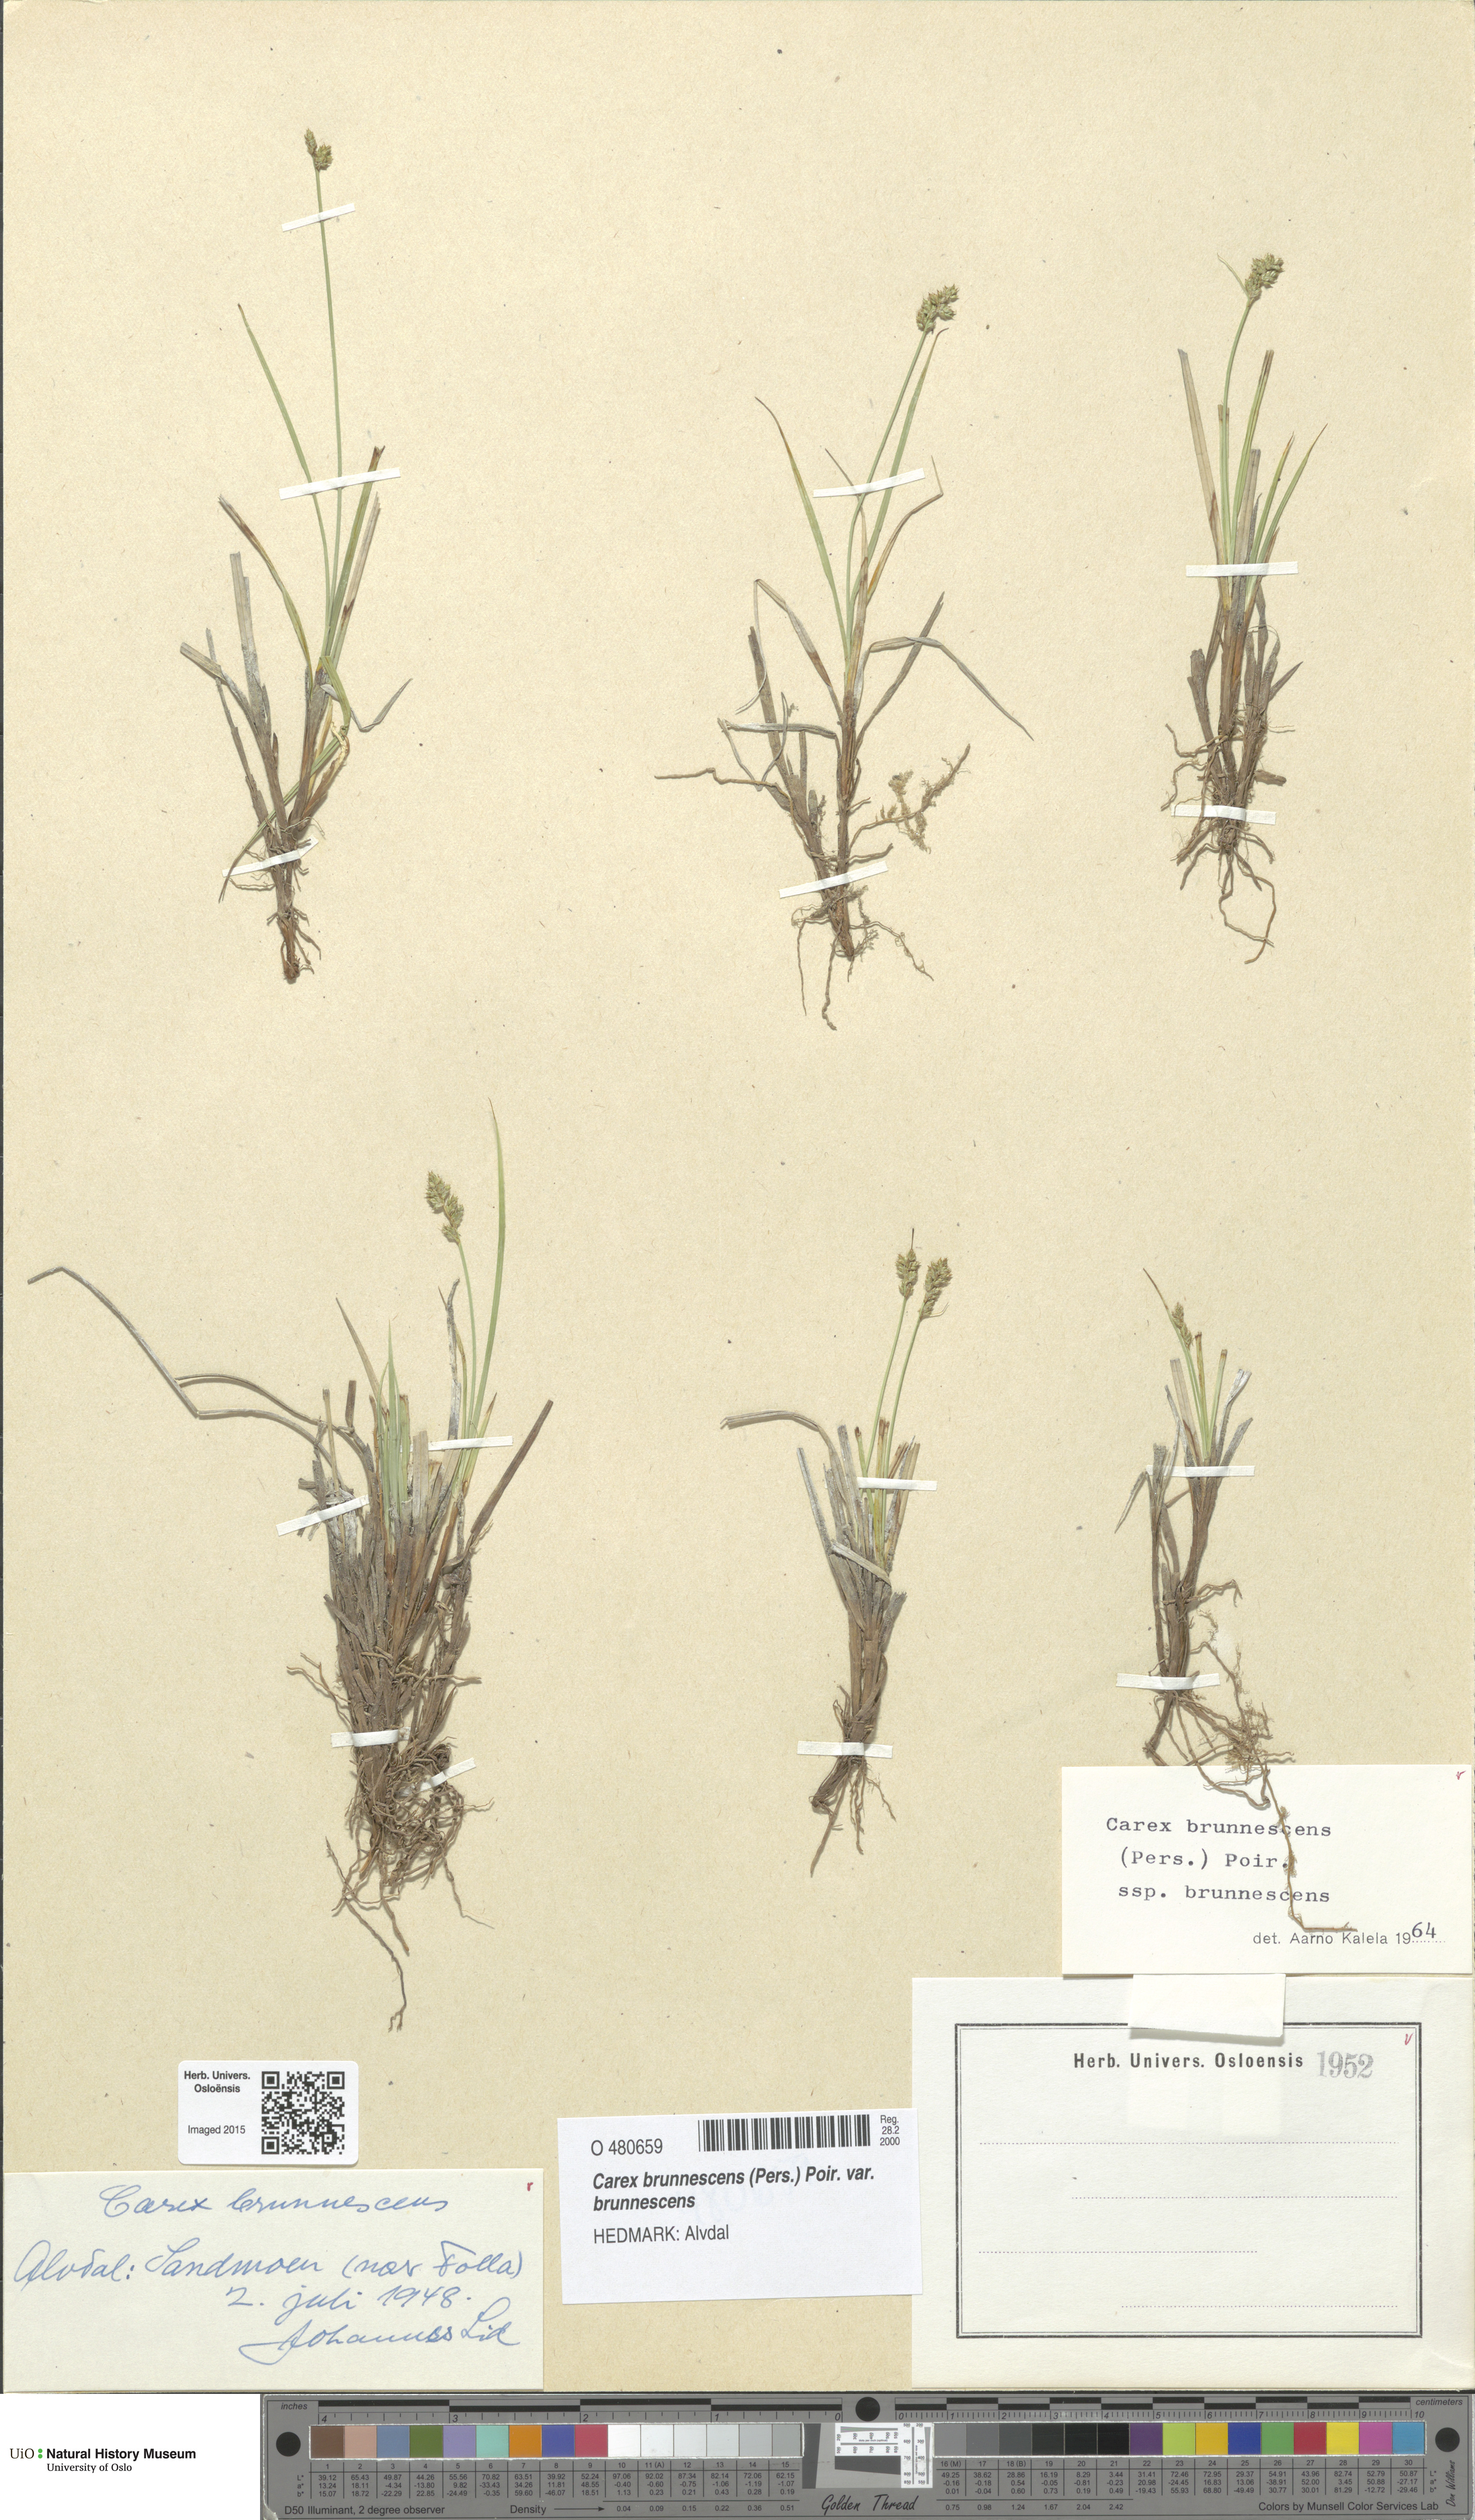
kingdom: Plantae
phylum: Tracheophyta
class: Liliopsida
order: Poales
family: Cyperaceae
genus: Carex
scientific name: Carex brunnescens
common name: Brown sedge
